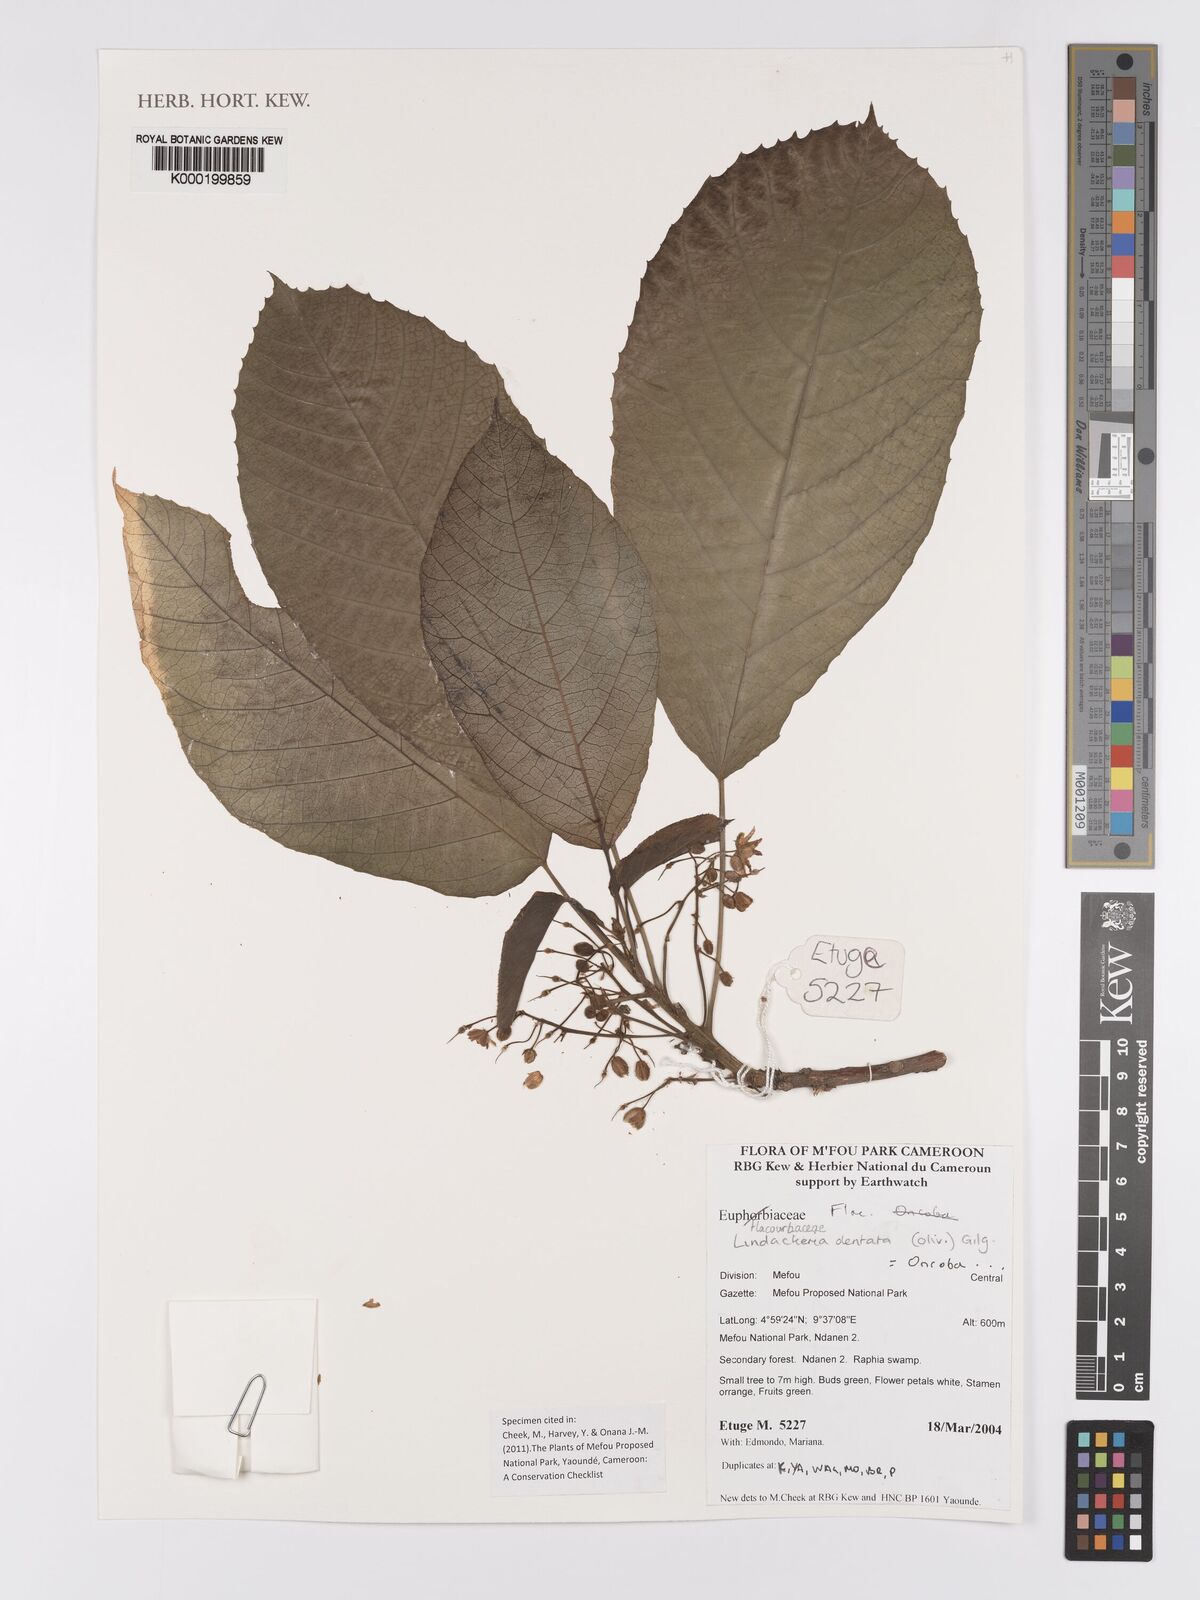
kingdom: Plantae
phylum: Tracheophyta
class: Magnoliopsida
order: Malpighiales
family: Achariaceae
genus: Lindackeria
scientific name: Lindackeria dentata
